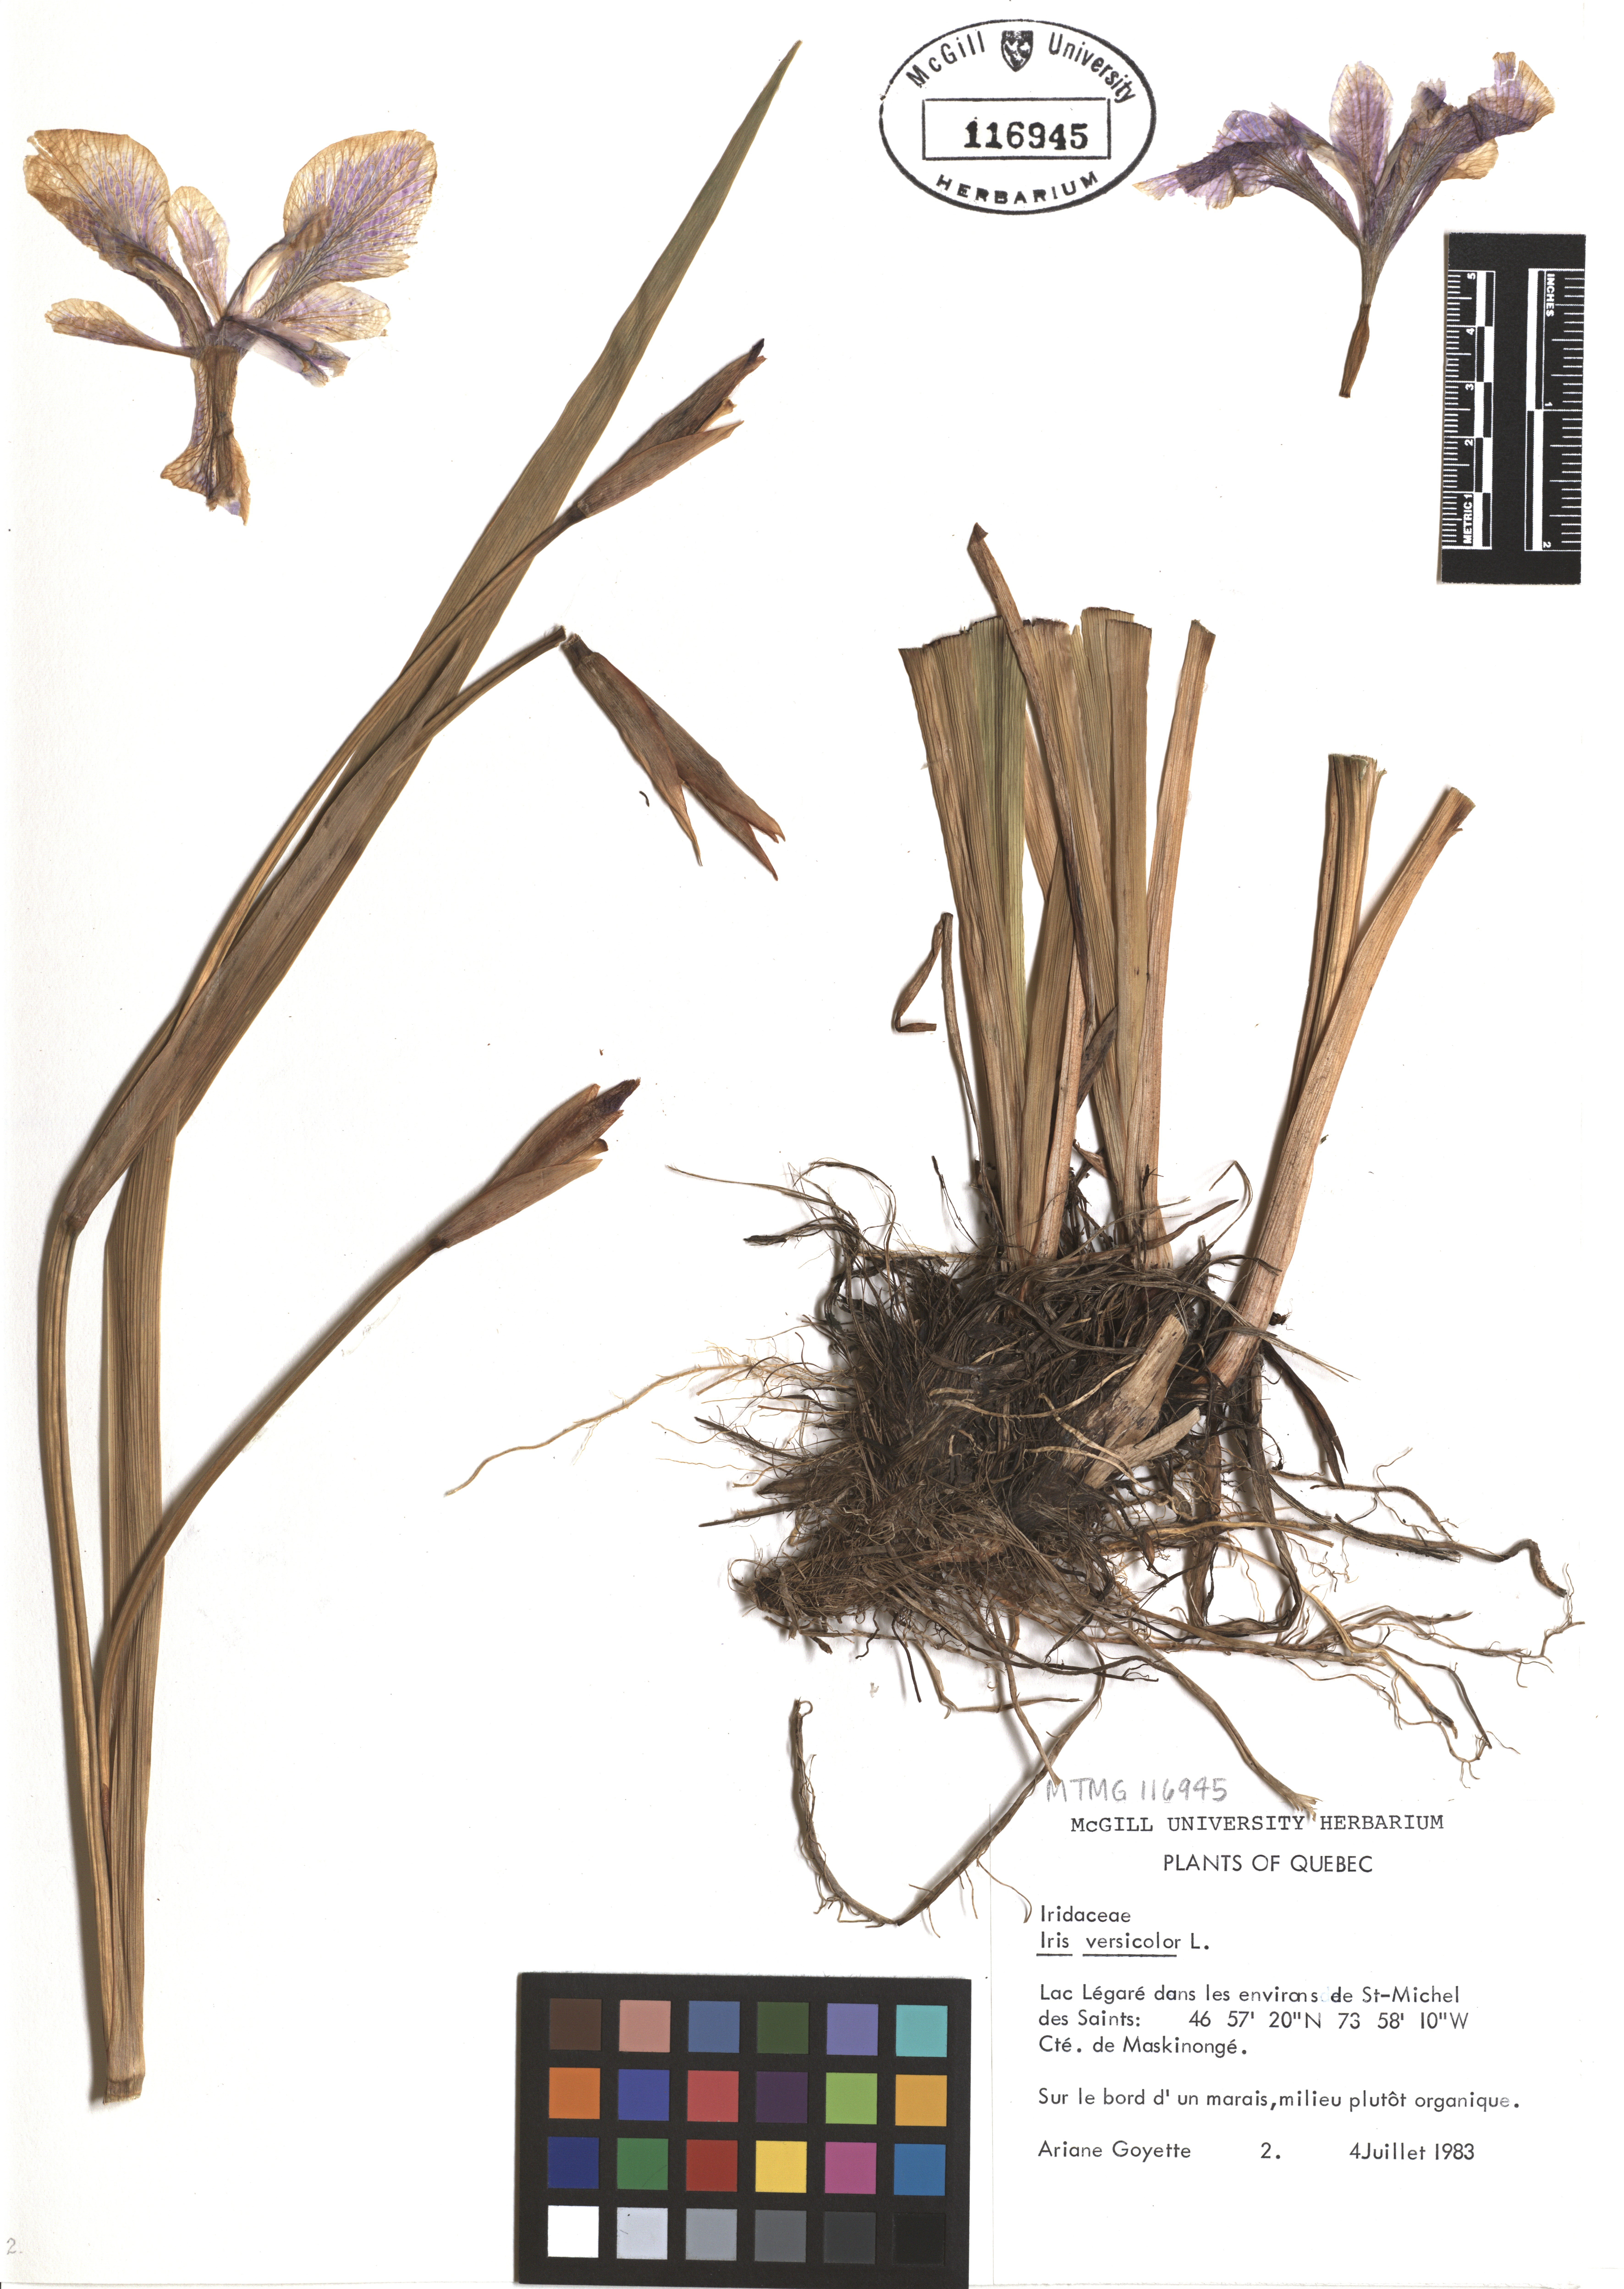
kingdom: Plantae
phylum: Tracheophyta
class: Liliopsida
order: Asparagales
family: Iridaceae
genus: Iris
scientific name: Iris versicolor
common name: Purple iris
